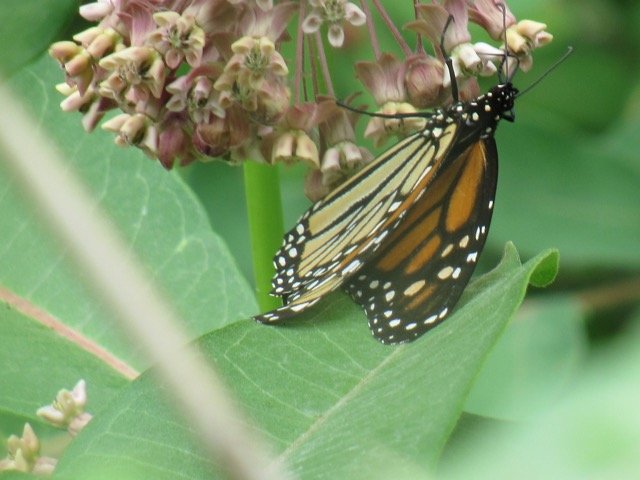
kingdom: Animalia
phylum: Arthropoda
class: Insecta
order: Lepidoptera
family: Nymphalidae
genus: Danaus
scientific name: Danaus plexippus
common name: Monarch
